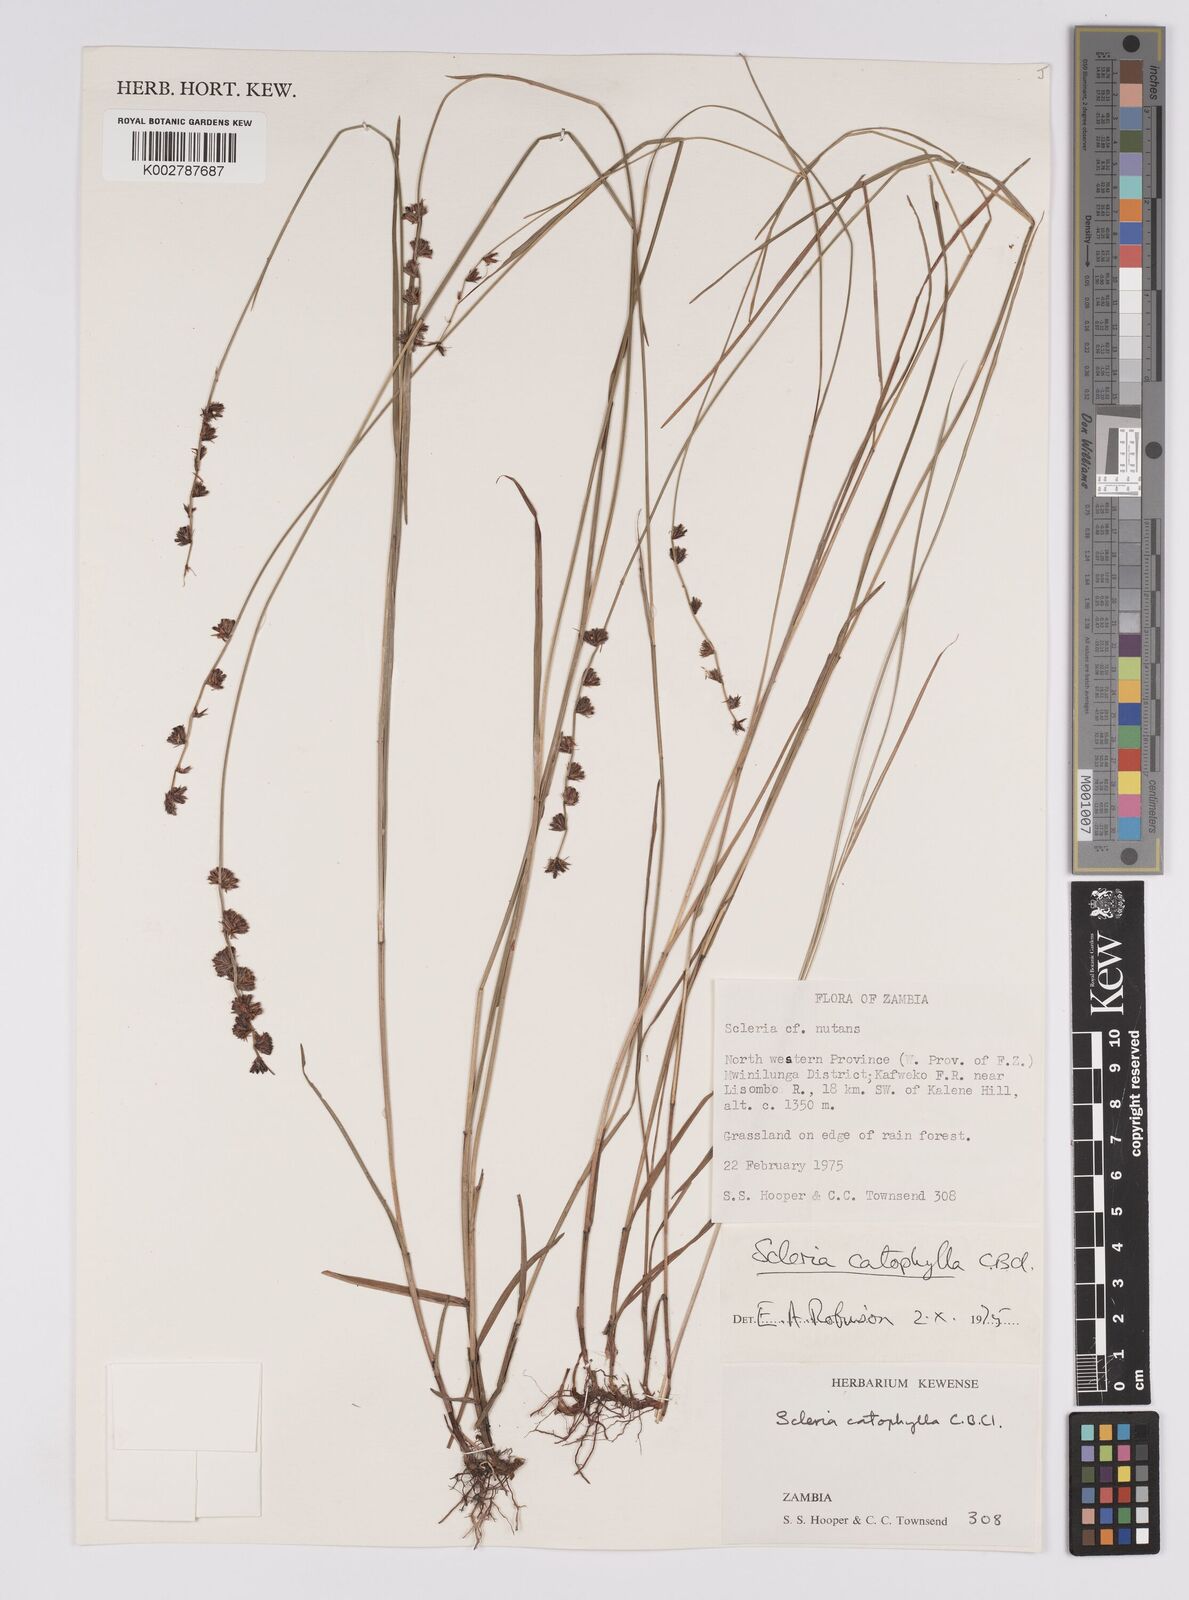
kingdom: Plantae
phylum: Tracheophyta
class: Liliopsida
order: Poales
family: Cyperaceae
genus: Scleria
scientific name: Scleria catophylla
